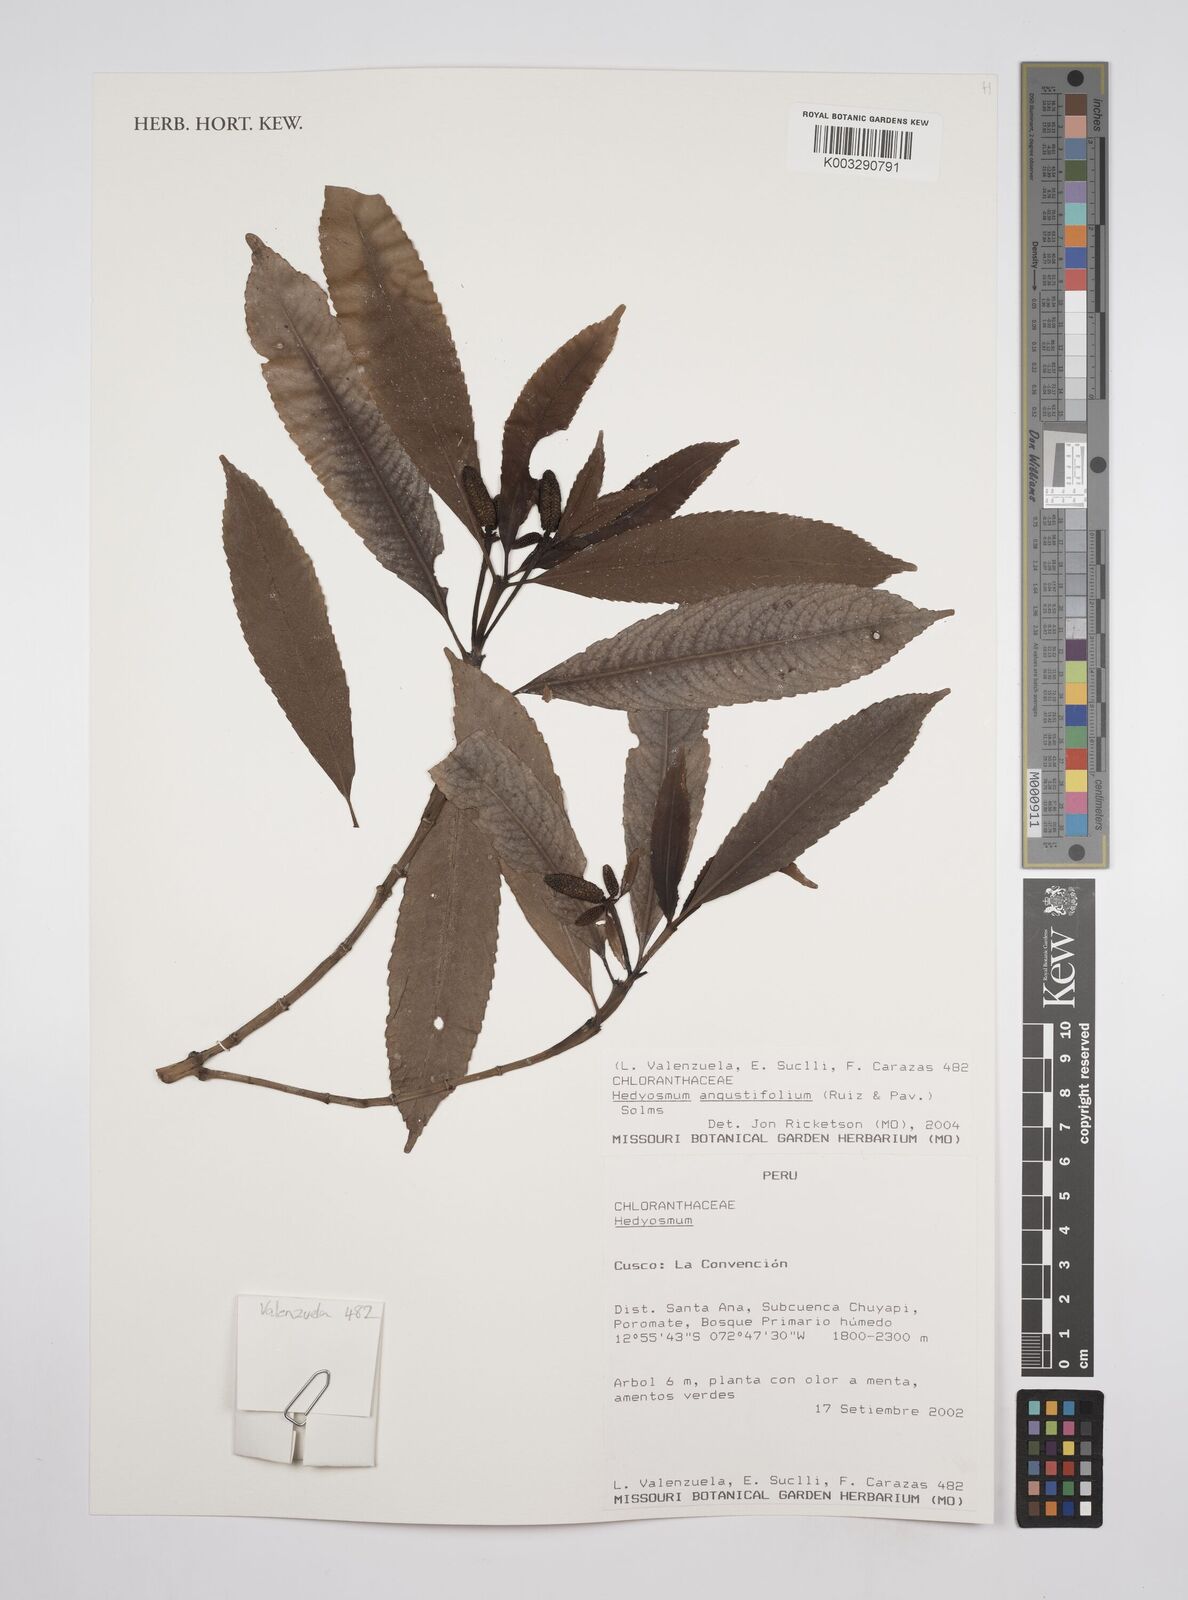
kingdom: Plantae
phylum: Tracheophyta
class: Magnoliopsida
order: Chloranthales
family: Chloranthaceae
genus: Hedyosmum
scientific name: Hedyosmum angustifolium
